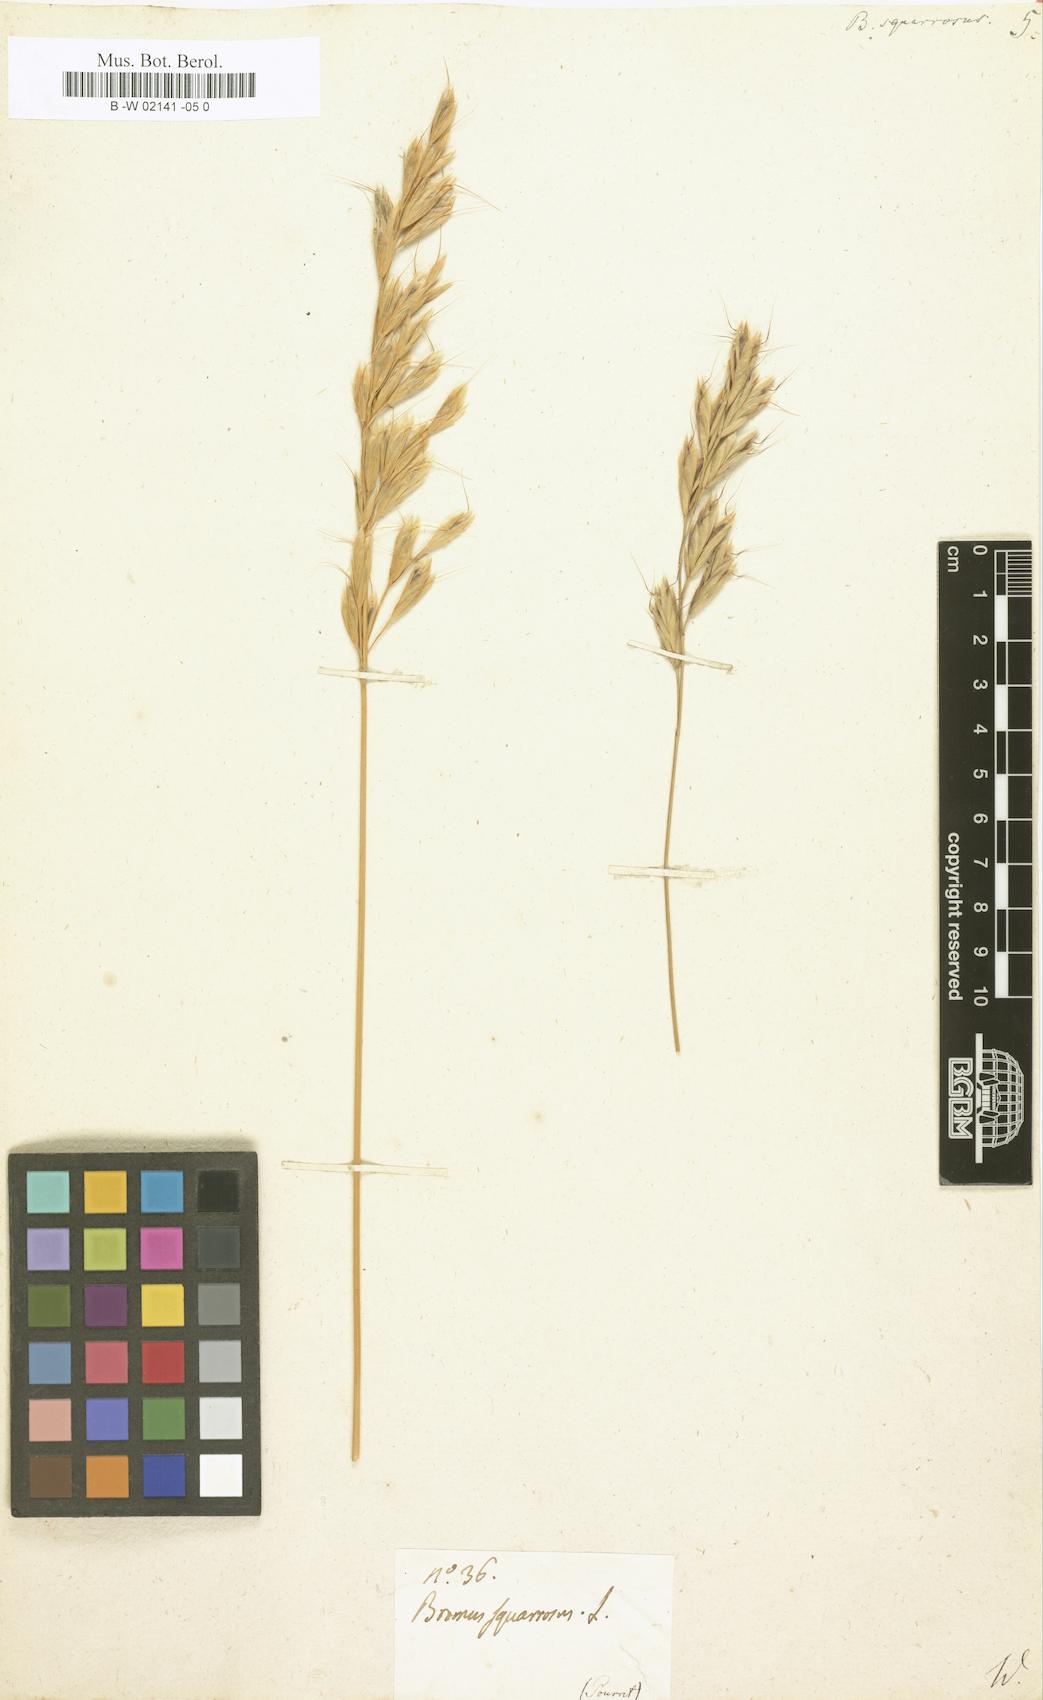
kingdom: Plantae
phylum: Tracheophyta
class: Liliopsida
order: Poales
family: Poaceae
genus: Bromus
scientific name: Bromus squarrosus
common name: Corn brome
